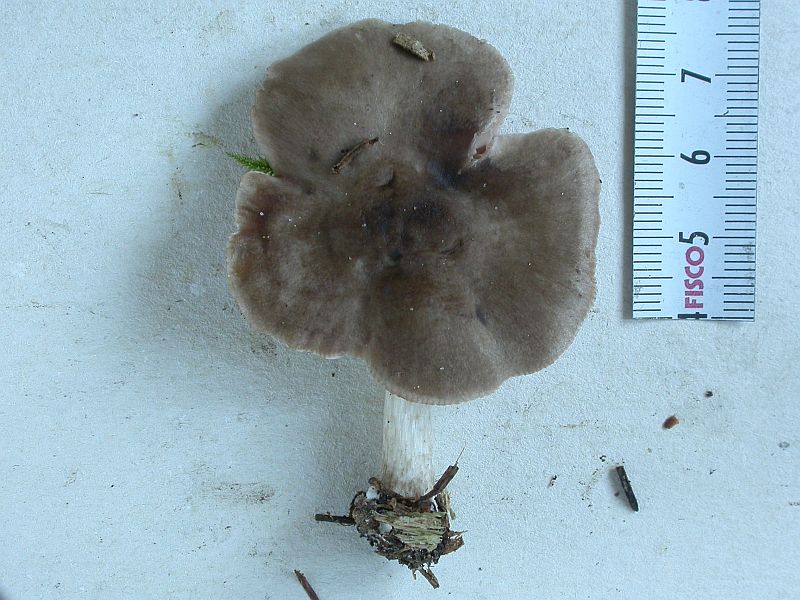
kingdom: Fungi
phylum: Basidiomycota
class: Agaricomycetes
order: Agaricales
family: Pluteaceae
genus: Pluteus
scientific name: Pluteus pouzarianus
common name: plantage-skærmhat
